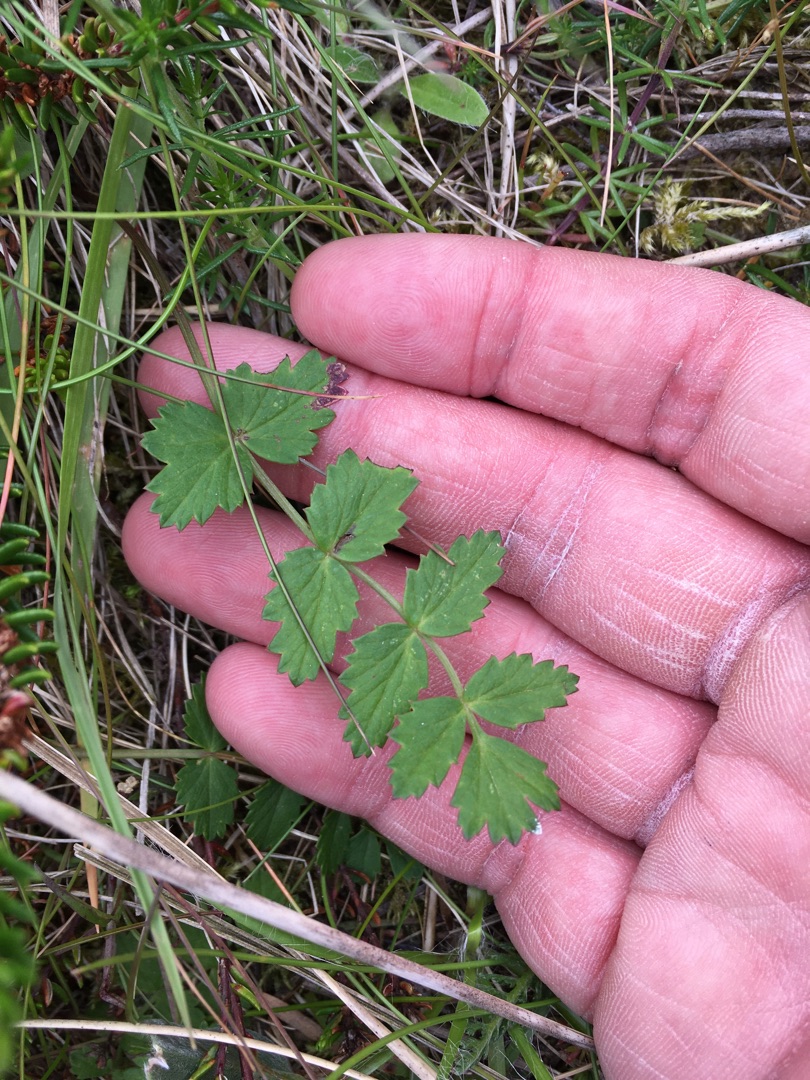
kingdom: Plantae
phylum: Tracheophyta
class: Magnoliopsida
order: Apiales
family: Apiaceae
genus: Pimpinella
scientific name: Pimpinella saxifraga
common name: Almindelig pimpinelle
